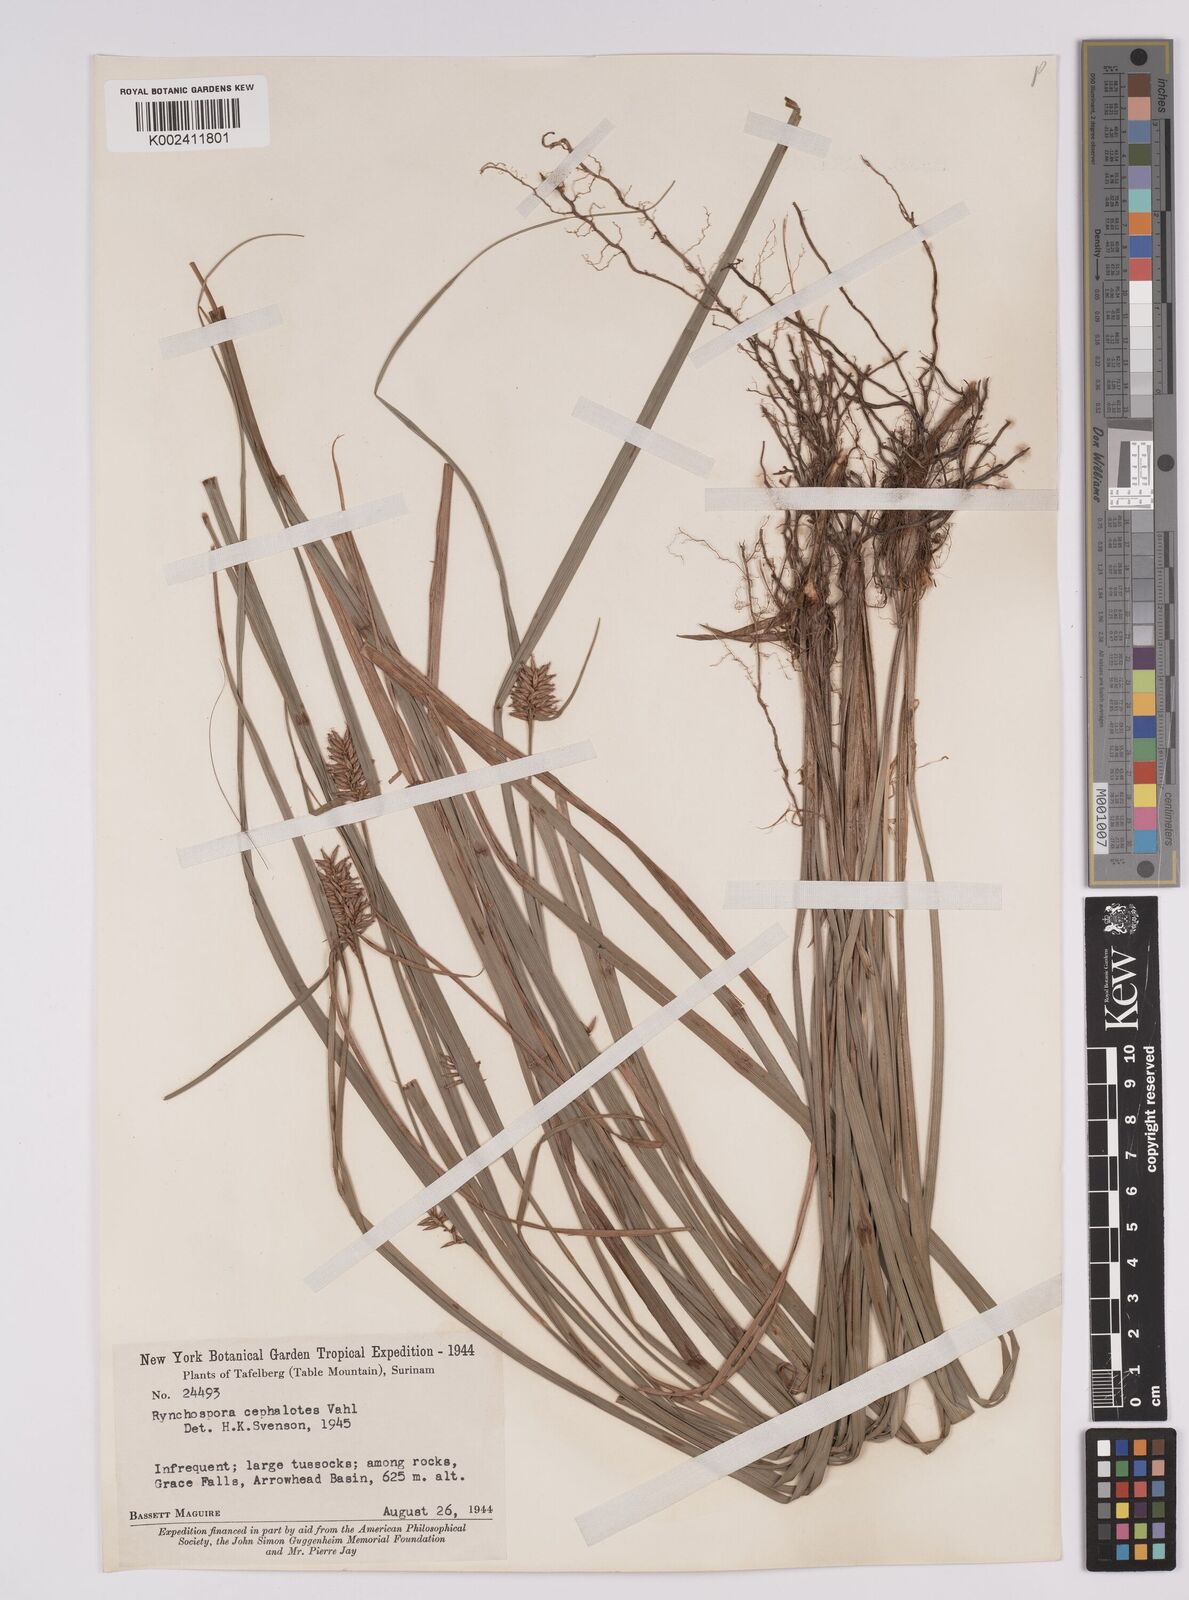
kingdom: Plantae
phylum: Tracheophyta
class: Liliopsida
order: Poales
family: Cyperaceae
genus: Rhynchospora
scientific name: Rhynchospora cephalotes
